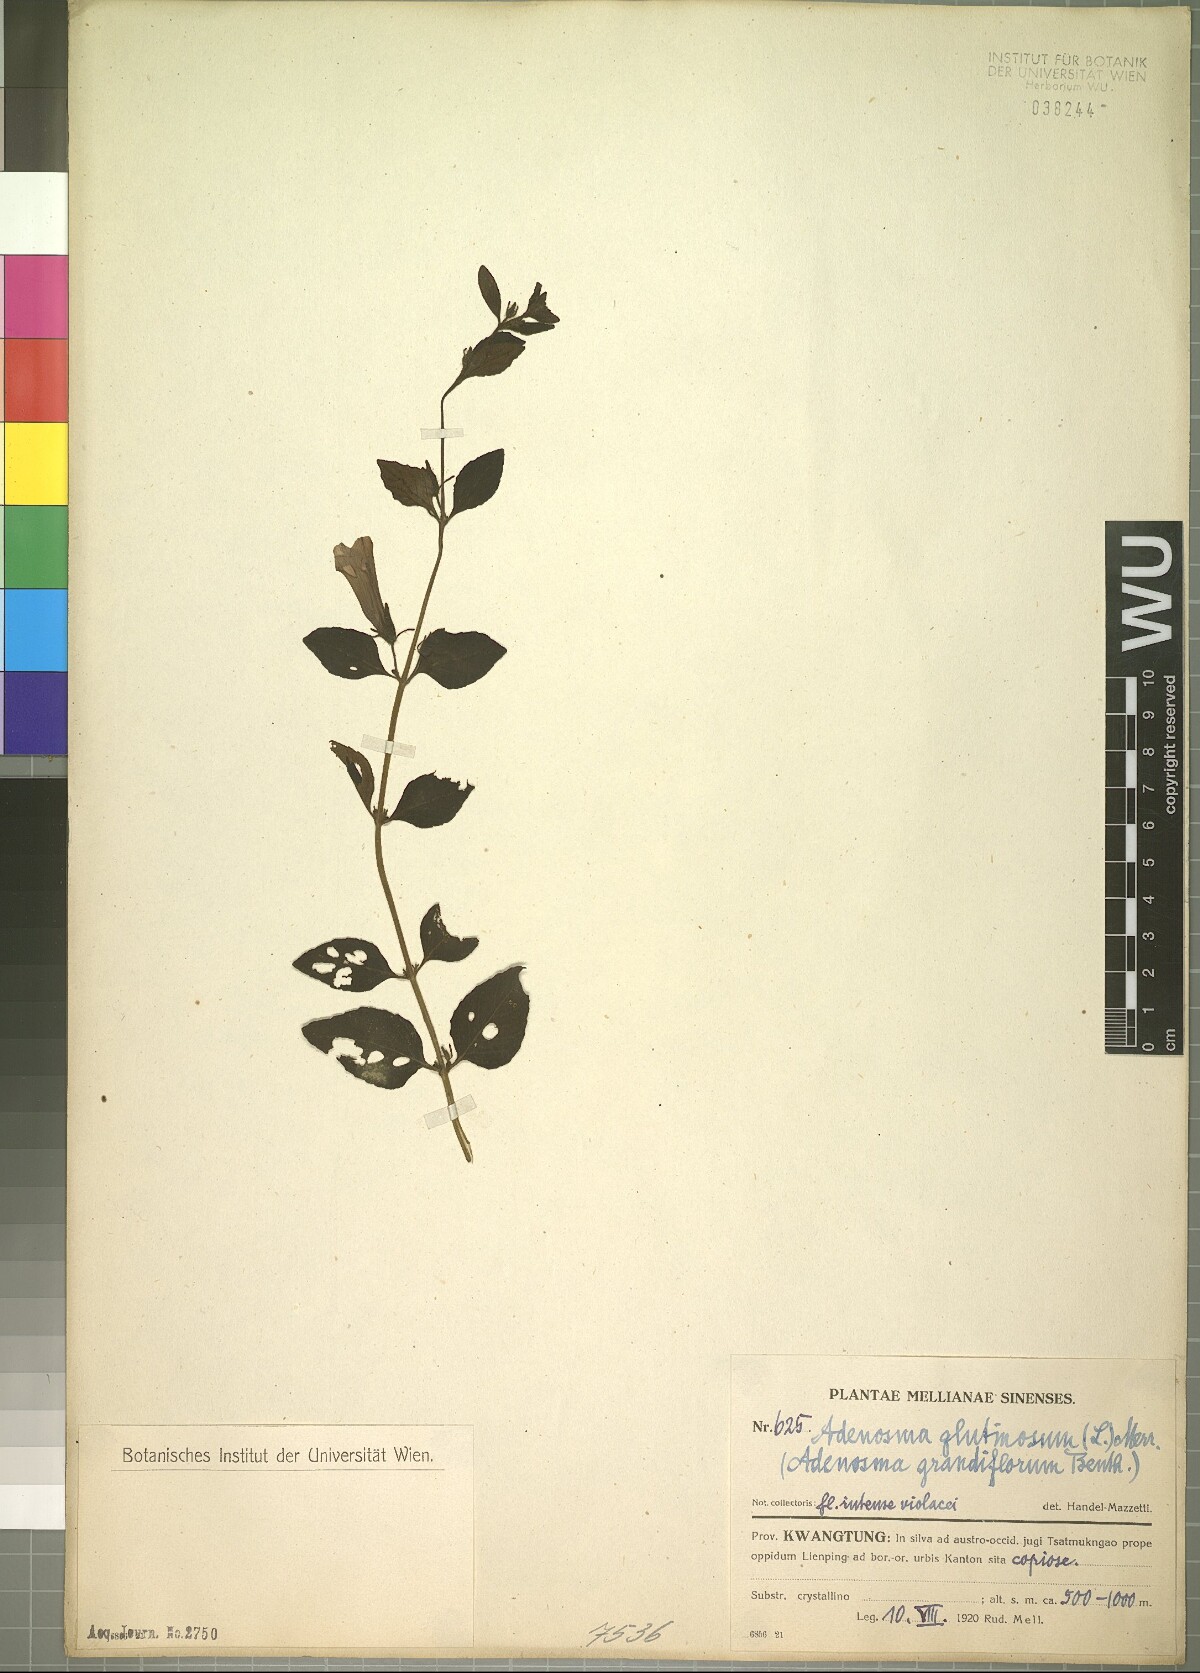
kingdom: Plantae
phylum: Tracheophyta
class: Magnoliopsida
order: Lamiales
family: Plantaginaceae
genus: Adenosma
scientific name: Adenosma glutinosa
